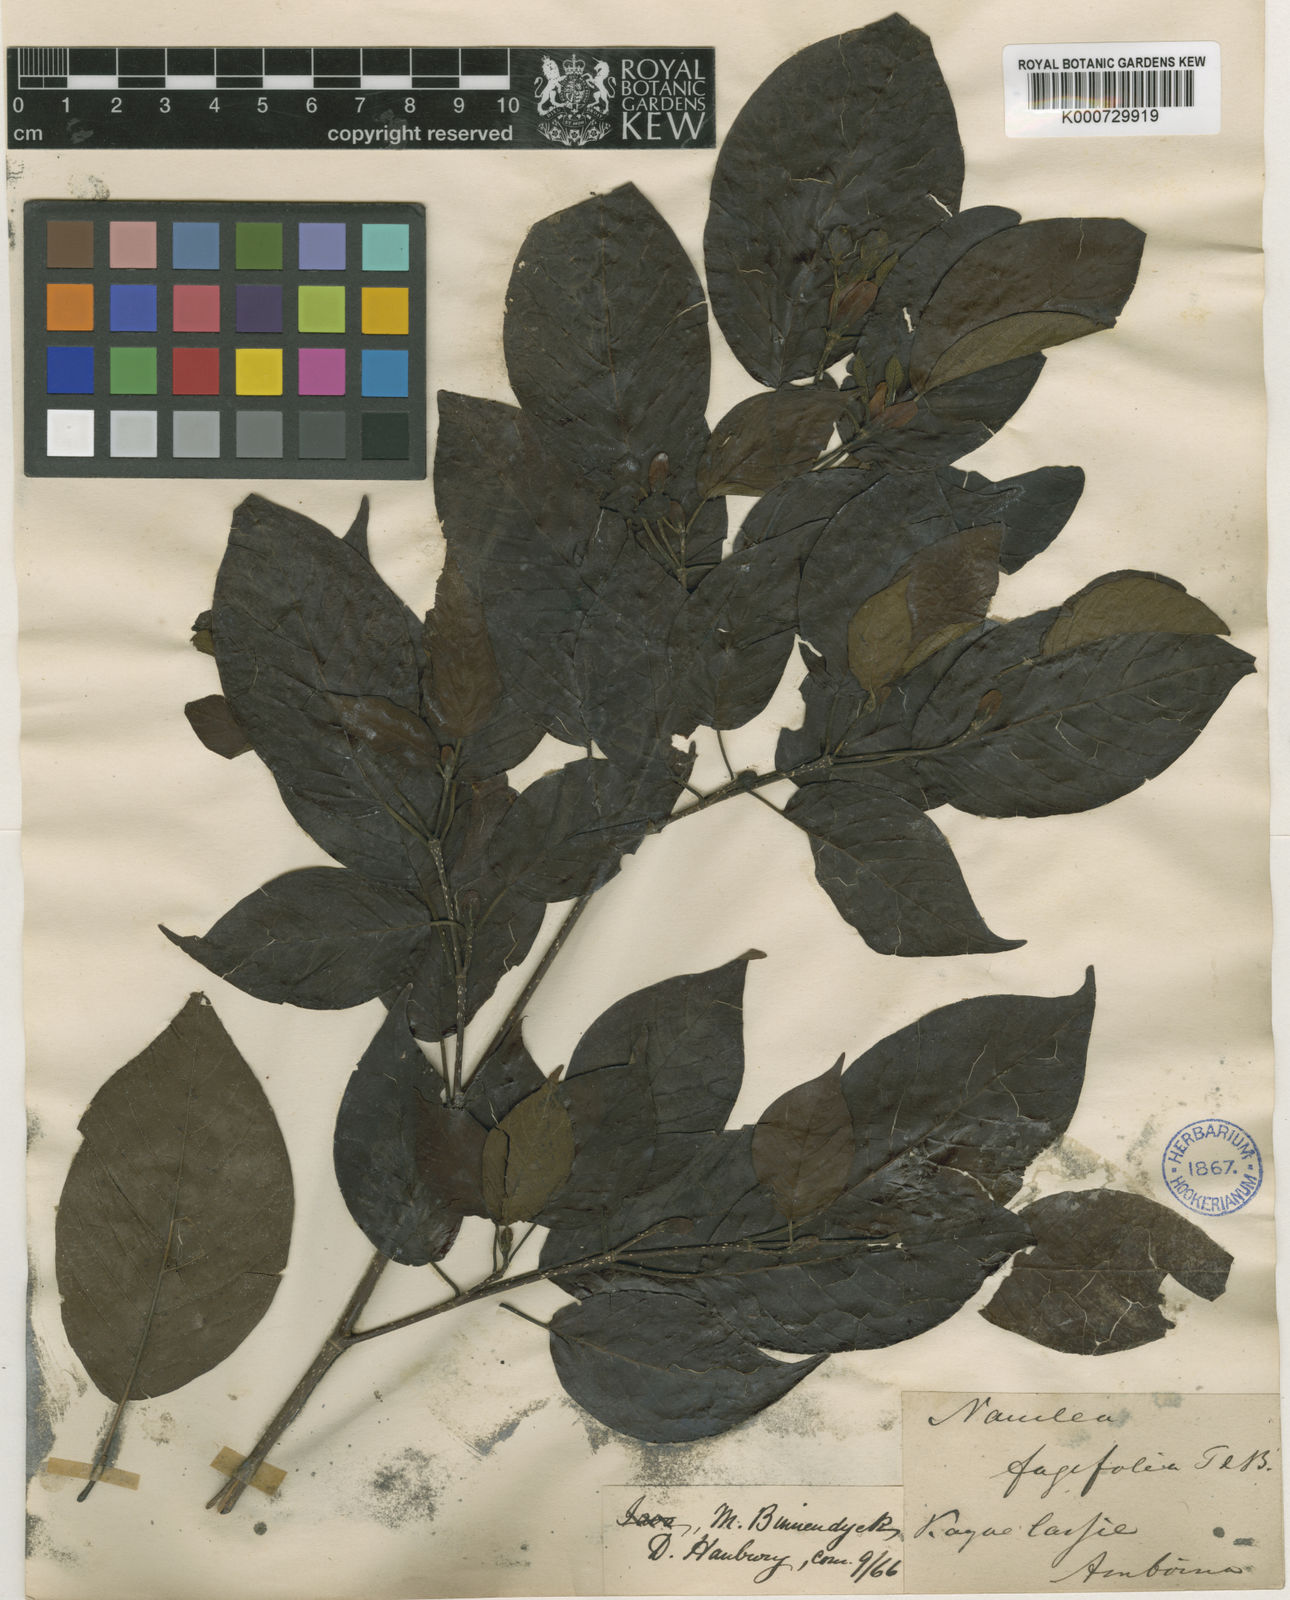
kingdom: Plantae
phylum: Tracheophyta
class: Magnoliopsida
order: Gentianales
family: Rubiaceae
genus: Adina
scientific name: Adina fagifolia
